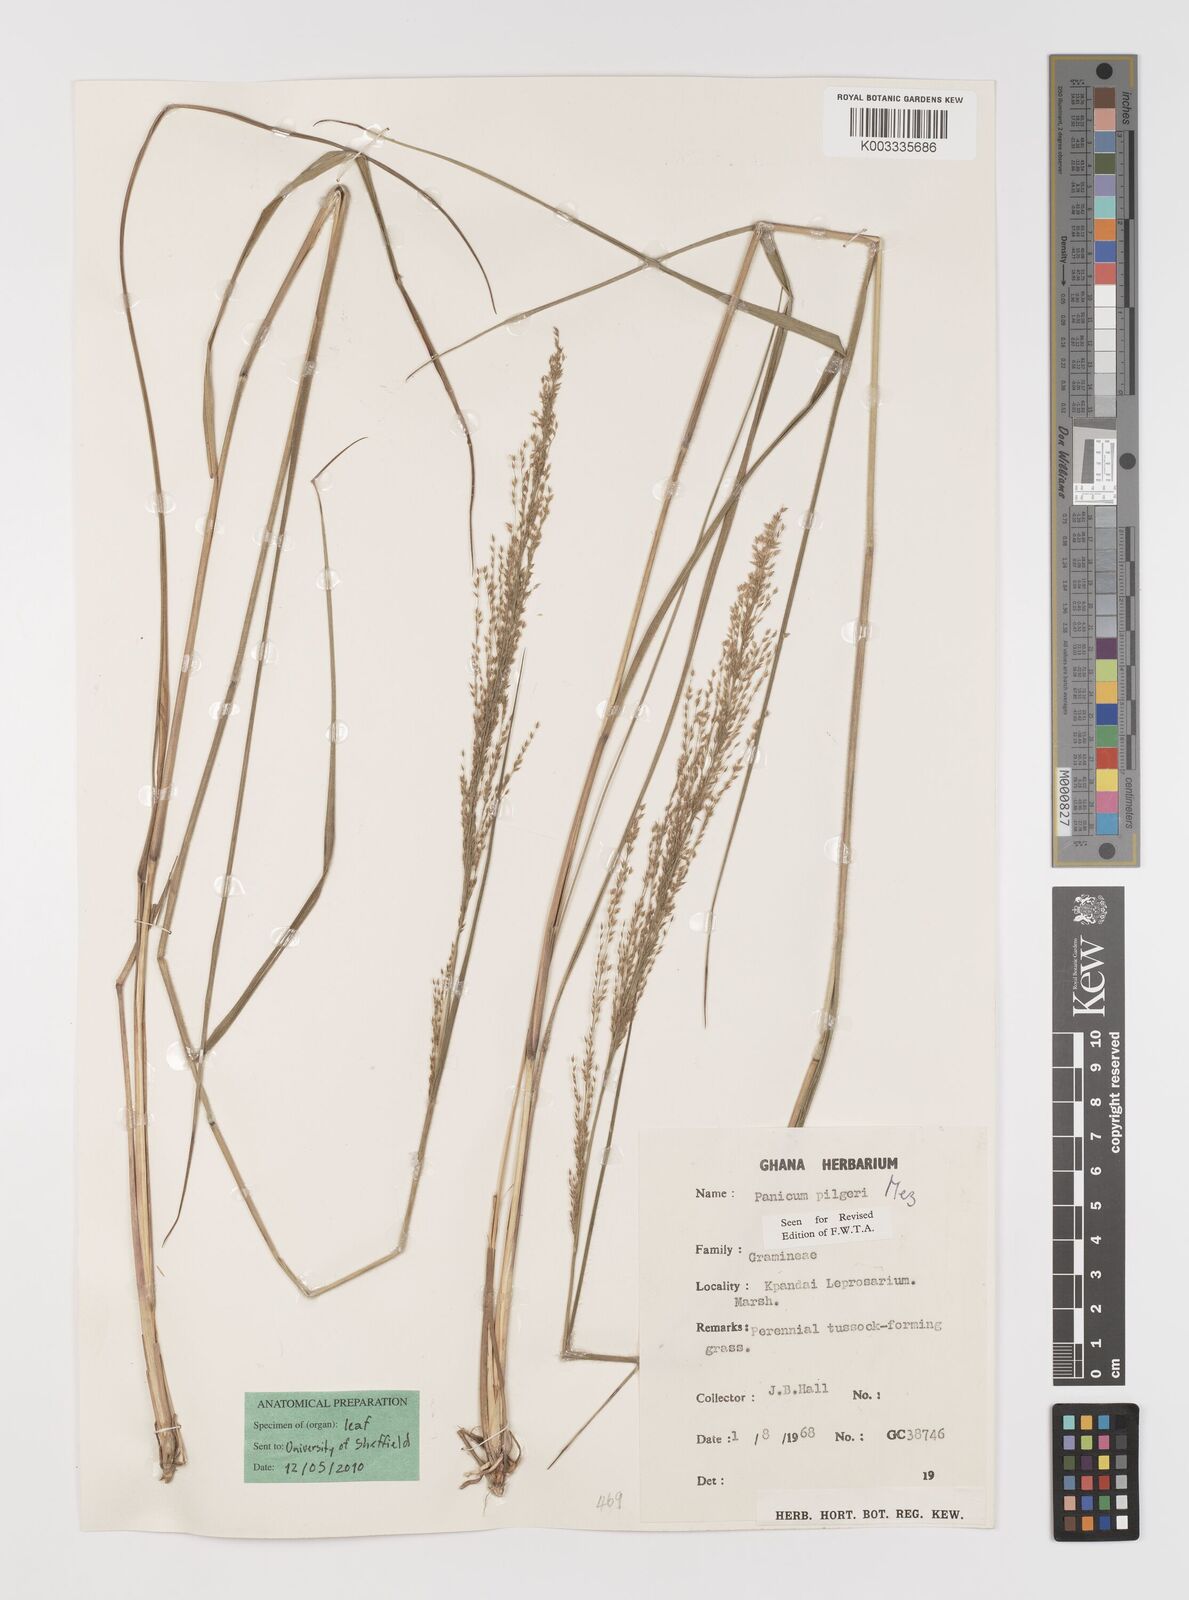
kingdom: Plantae
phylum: Tracheophyta
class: Liliopsida
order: Poales
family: Poaceae
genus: Panicum
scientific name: Panicum
